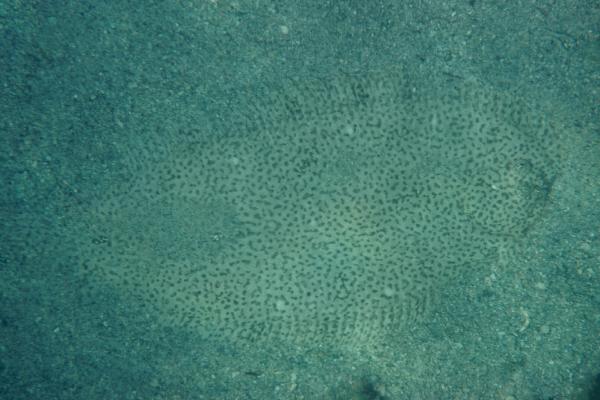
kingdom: Animalia
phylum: Chordata
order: Pleuronectiformes
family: Soleidae
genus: Pardachirus
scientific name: Pardachirus marmoratus
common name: Finless sole
